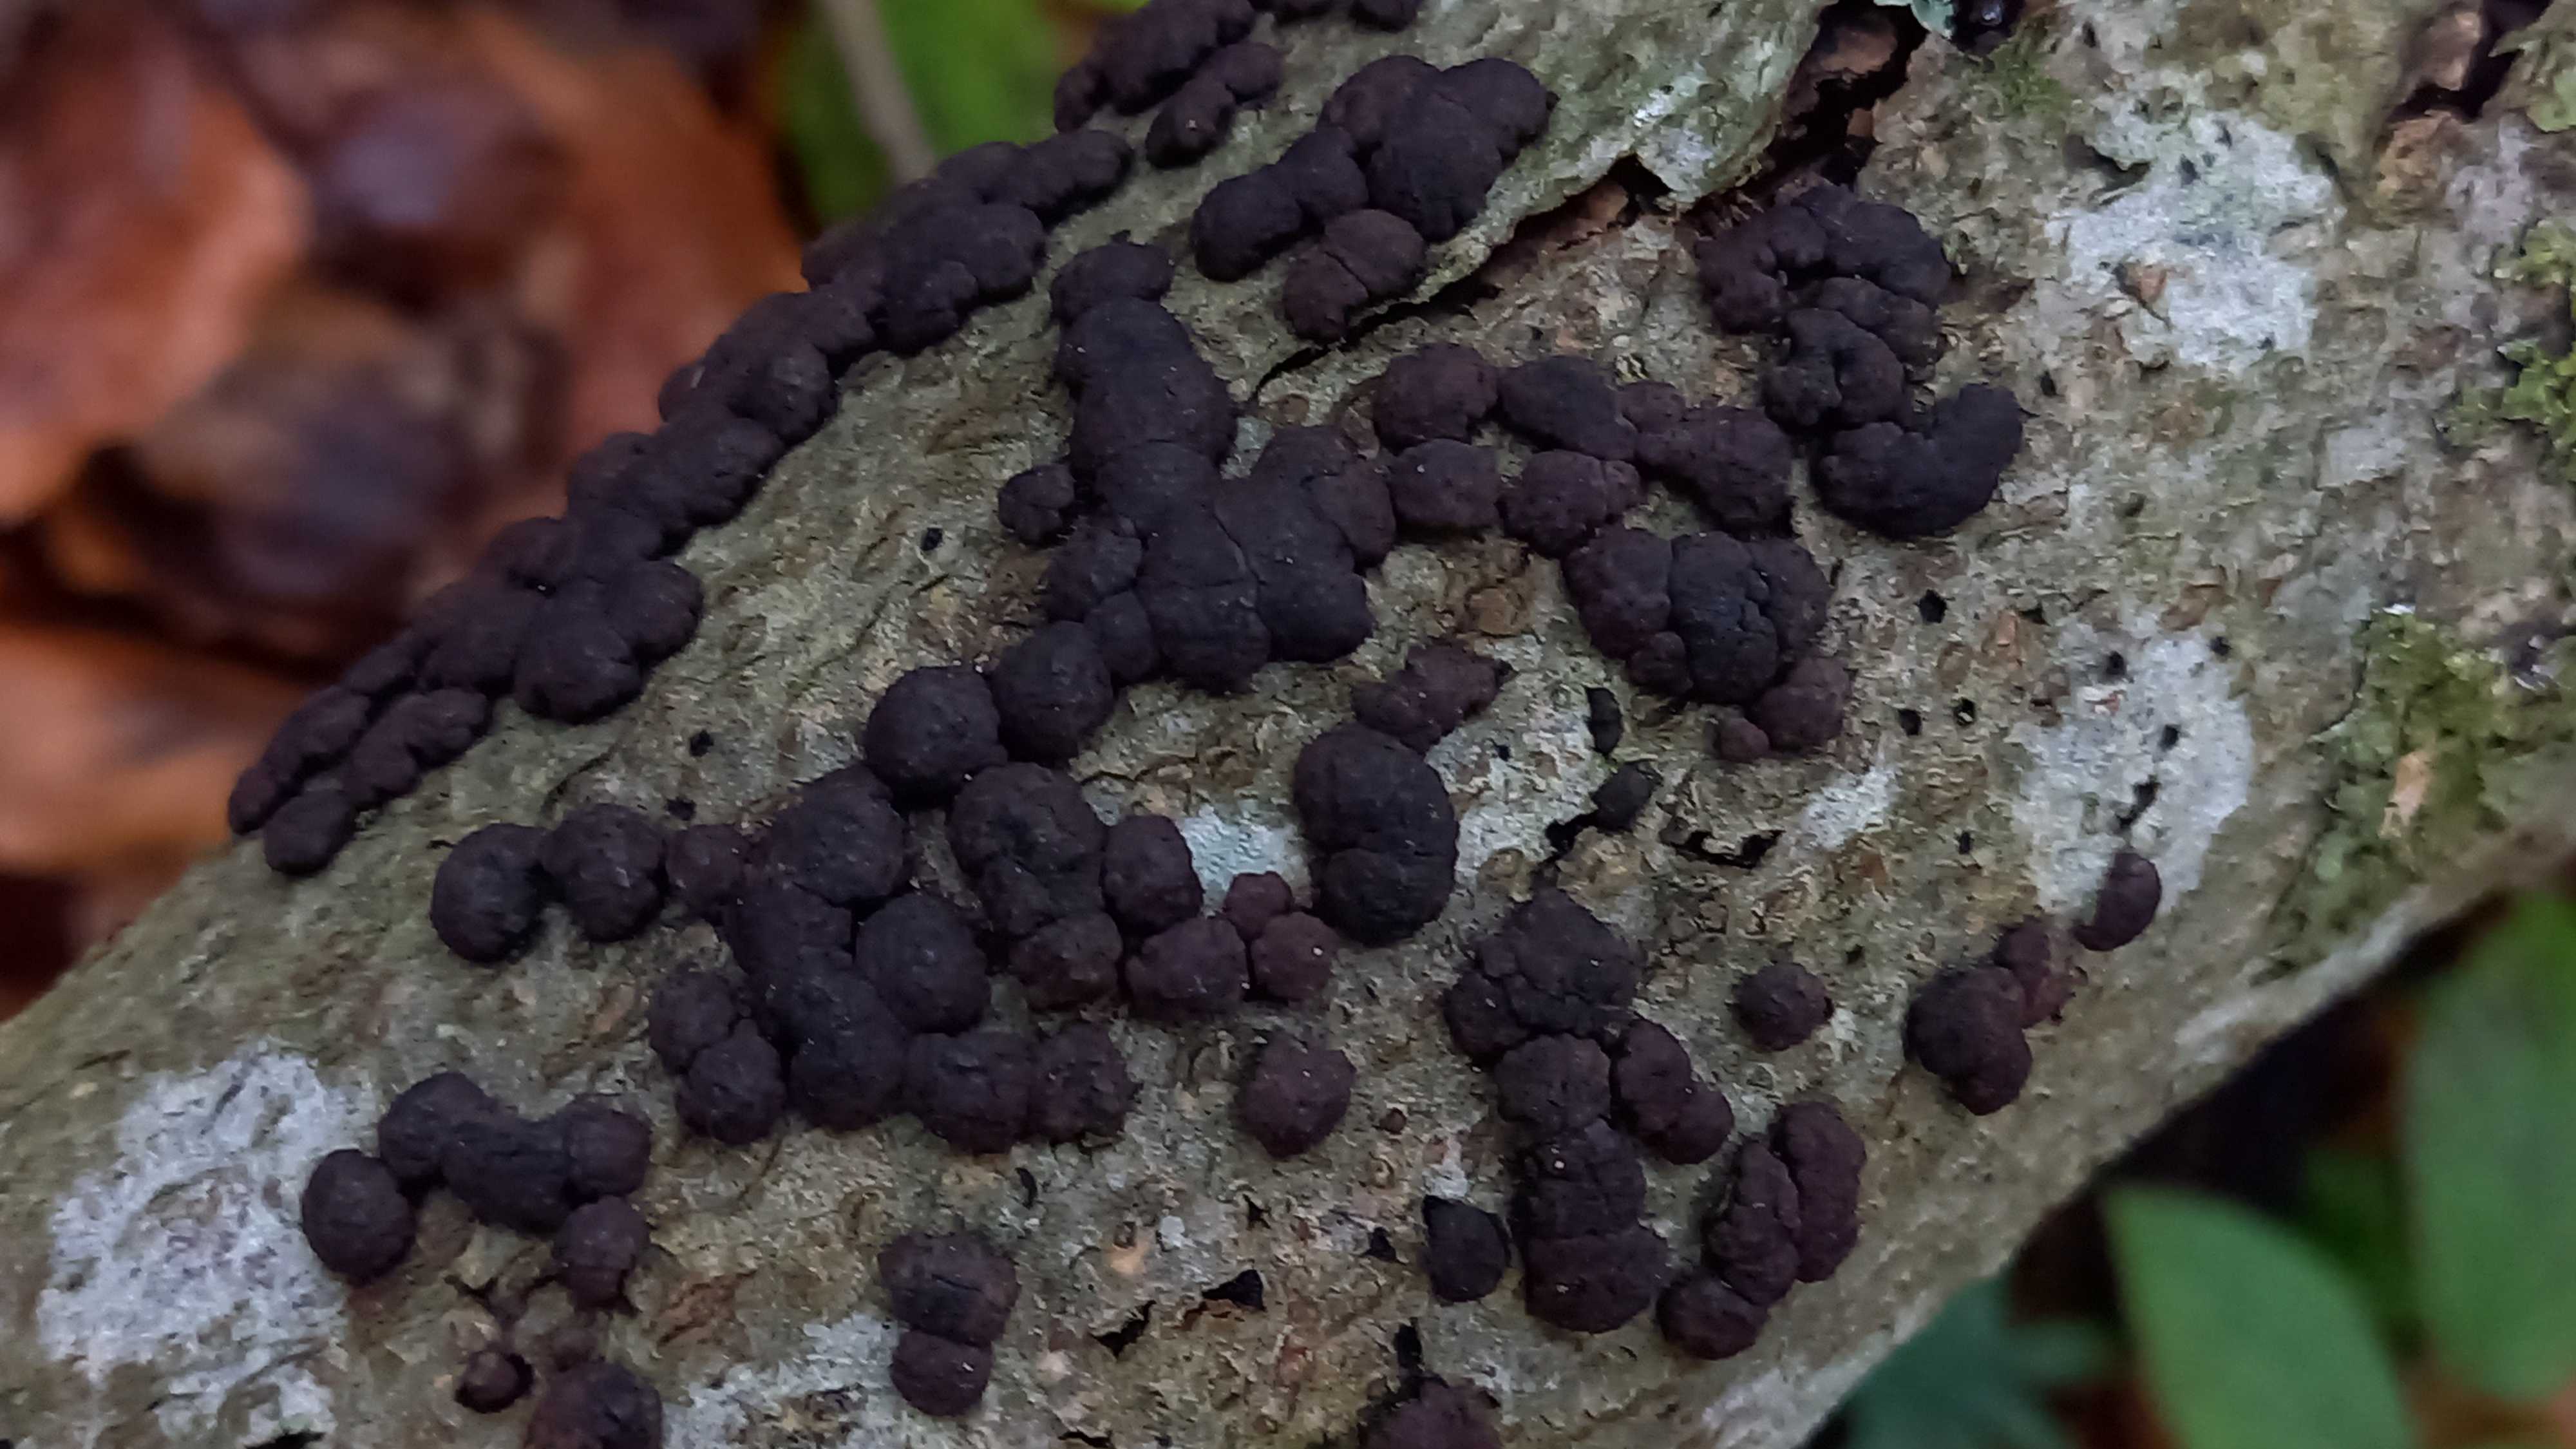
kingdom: Fungi
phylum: Ascomycota
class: Sordariomycetes
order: Xylariales
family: Hypoxylaceae
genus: Jackrogersella
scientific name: Jackrogersella cohaerens
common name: sammenflydende kulbær
